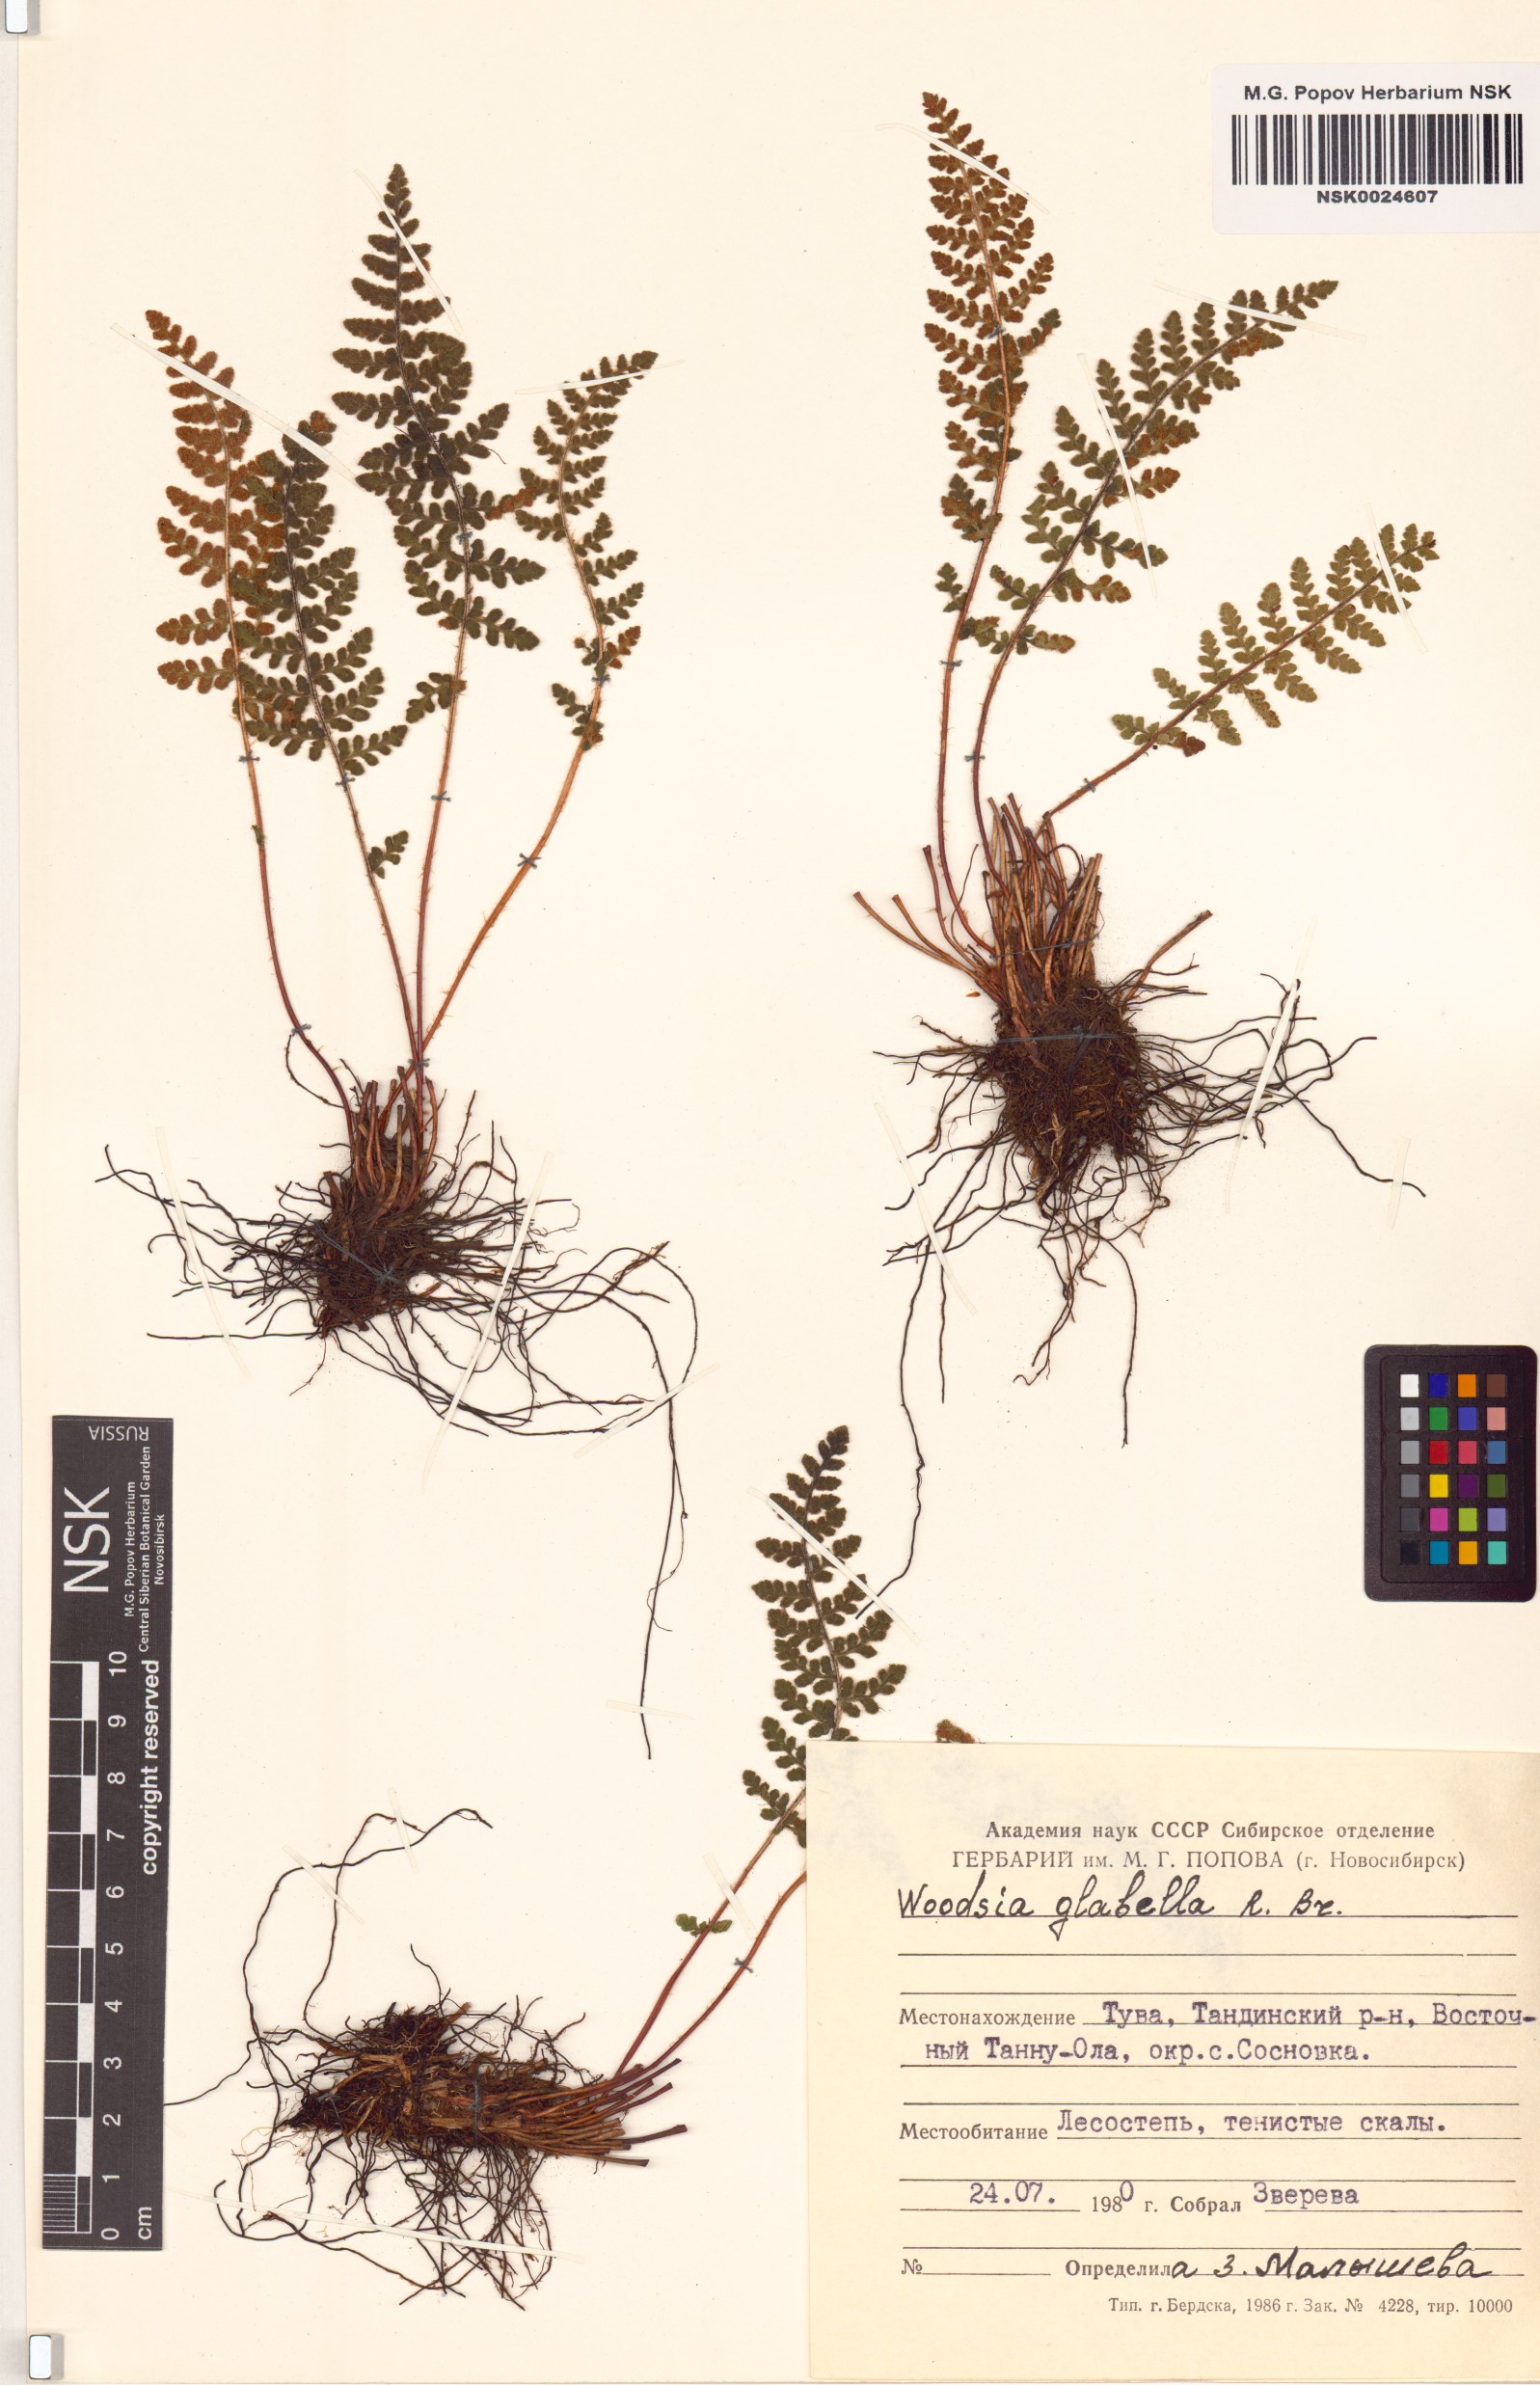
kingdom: Plantae
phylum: Tracheophyta
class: Polypodiopsida
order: Polypodiales
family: Woodsiaceae
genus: Woodsia
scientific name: Woodsia glabella
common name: Smooth woodsia
